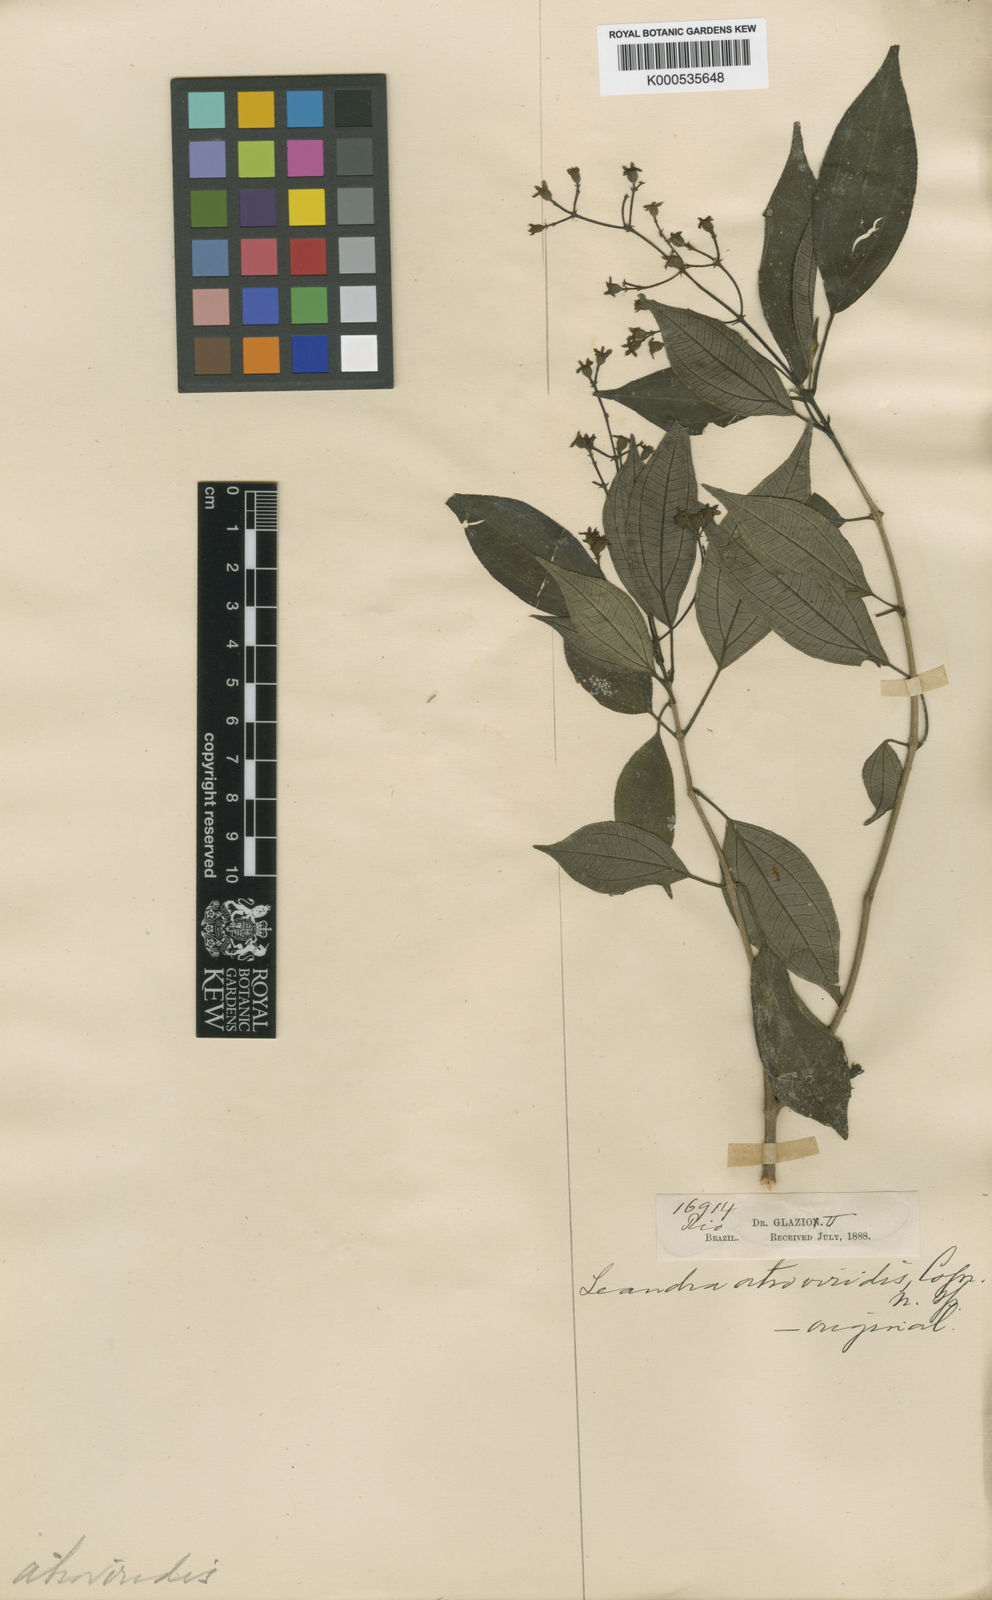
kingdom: Plantae
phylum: Tracheophyta
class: Magnoliopsida
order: Myrtales
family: Melastomataceae
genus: Miconia
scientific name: Miconia atroviridis
